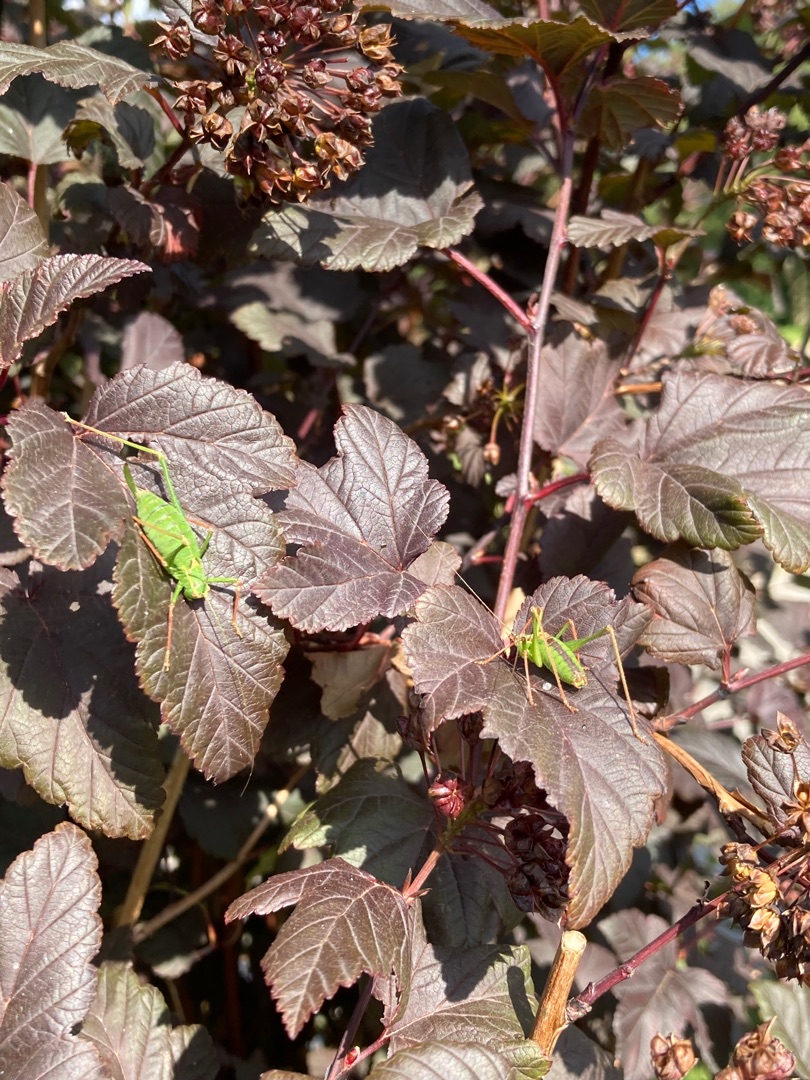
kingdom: Animalia
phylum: Arthropoda
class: Insecta
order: Orthoptera
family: Tettigoniidae
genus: Leptophyes
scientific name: Leptophyes punctatissima
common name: Krumknivgræshoppe
